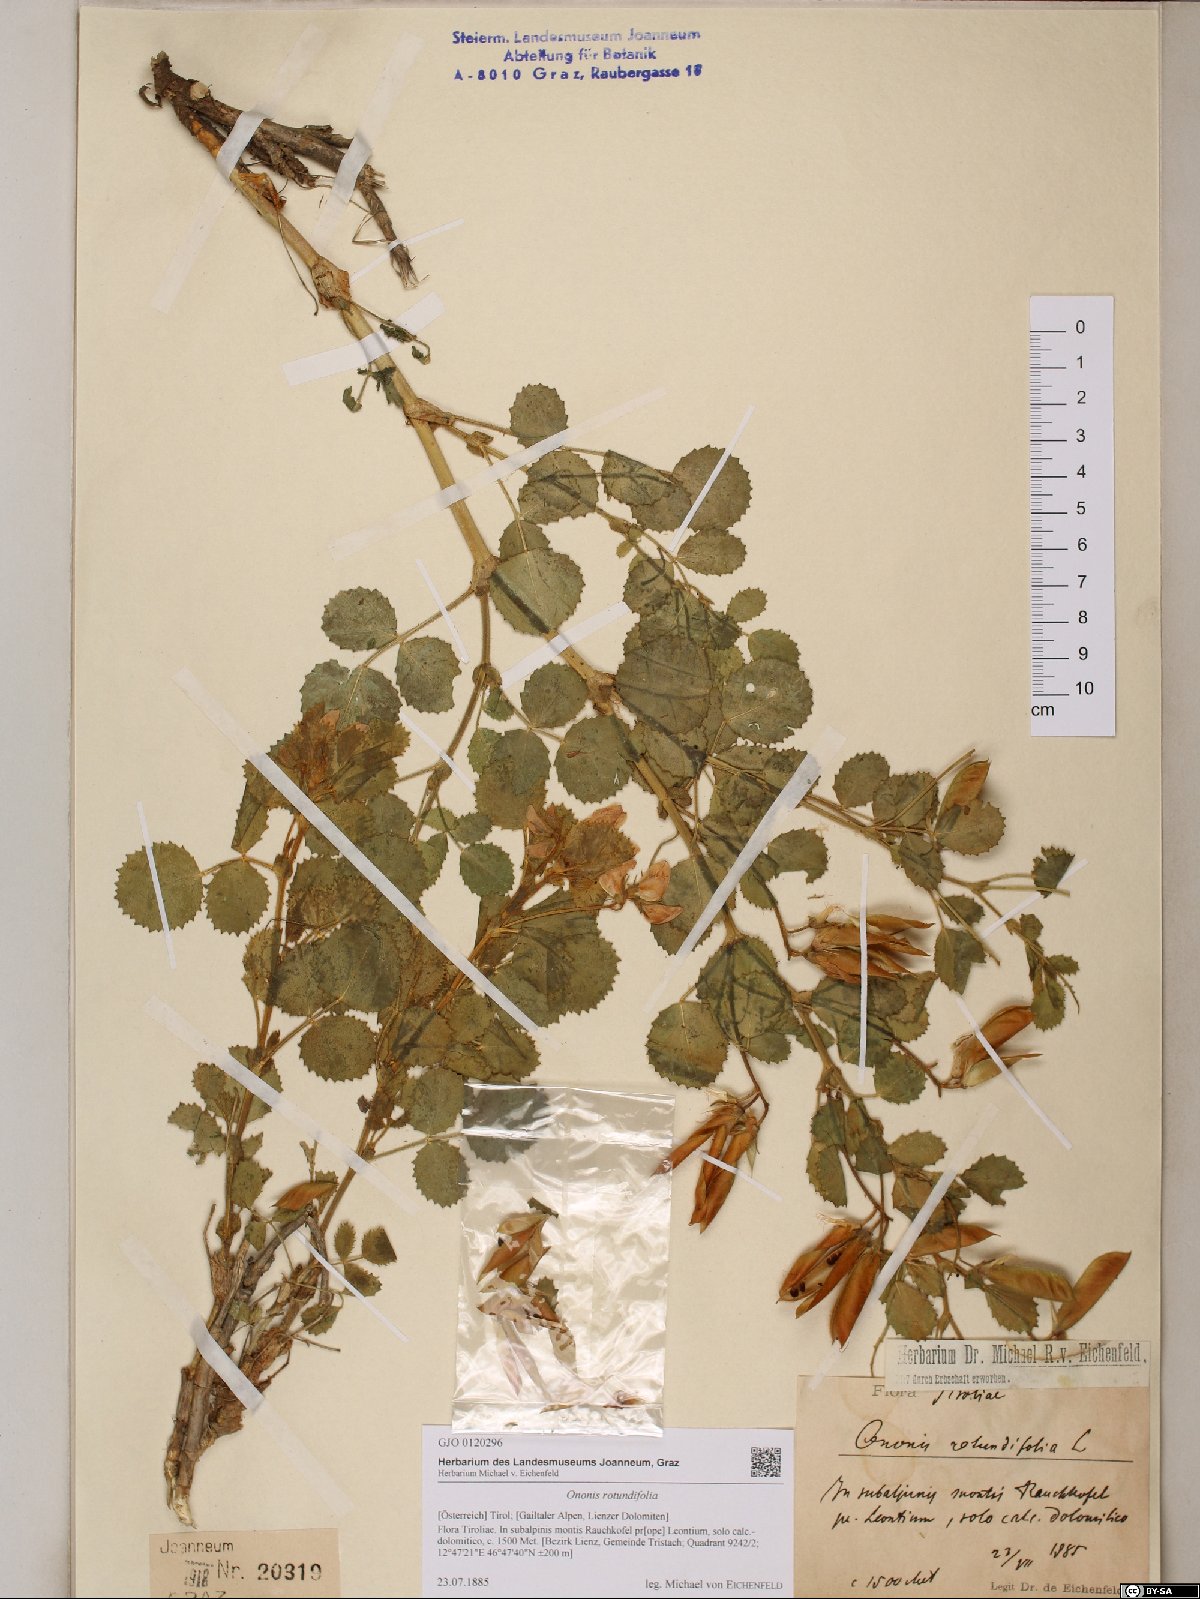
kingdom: Plantae
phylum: Tracheophyta
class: Magnoliopsida
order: Fabales
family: Fabaceae
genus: Ononis
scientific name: Ononis rotundifolia
